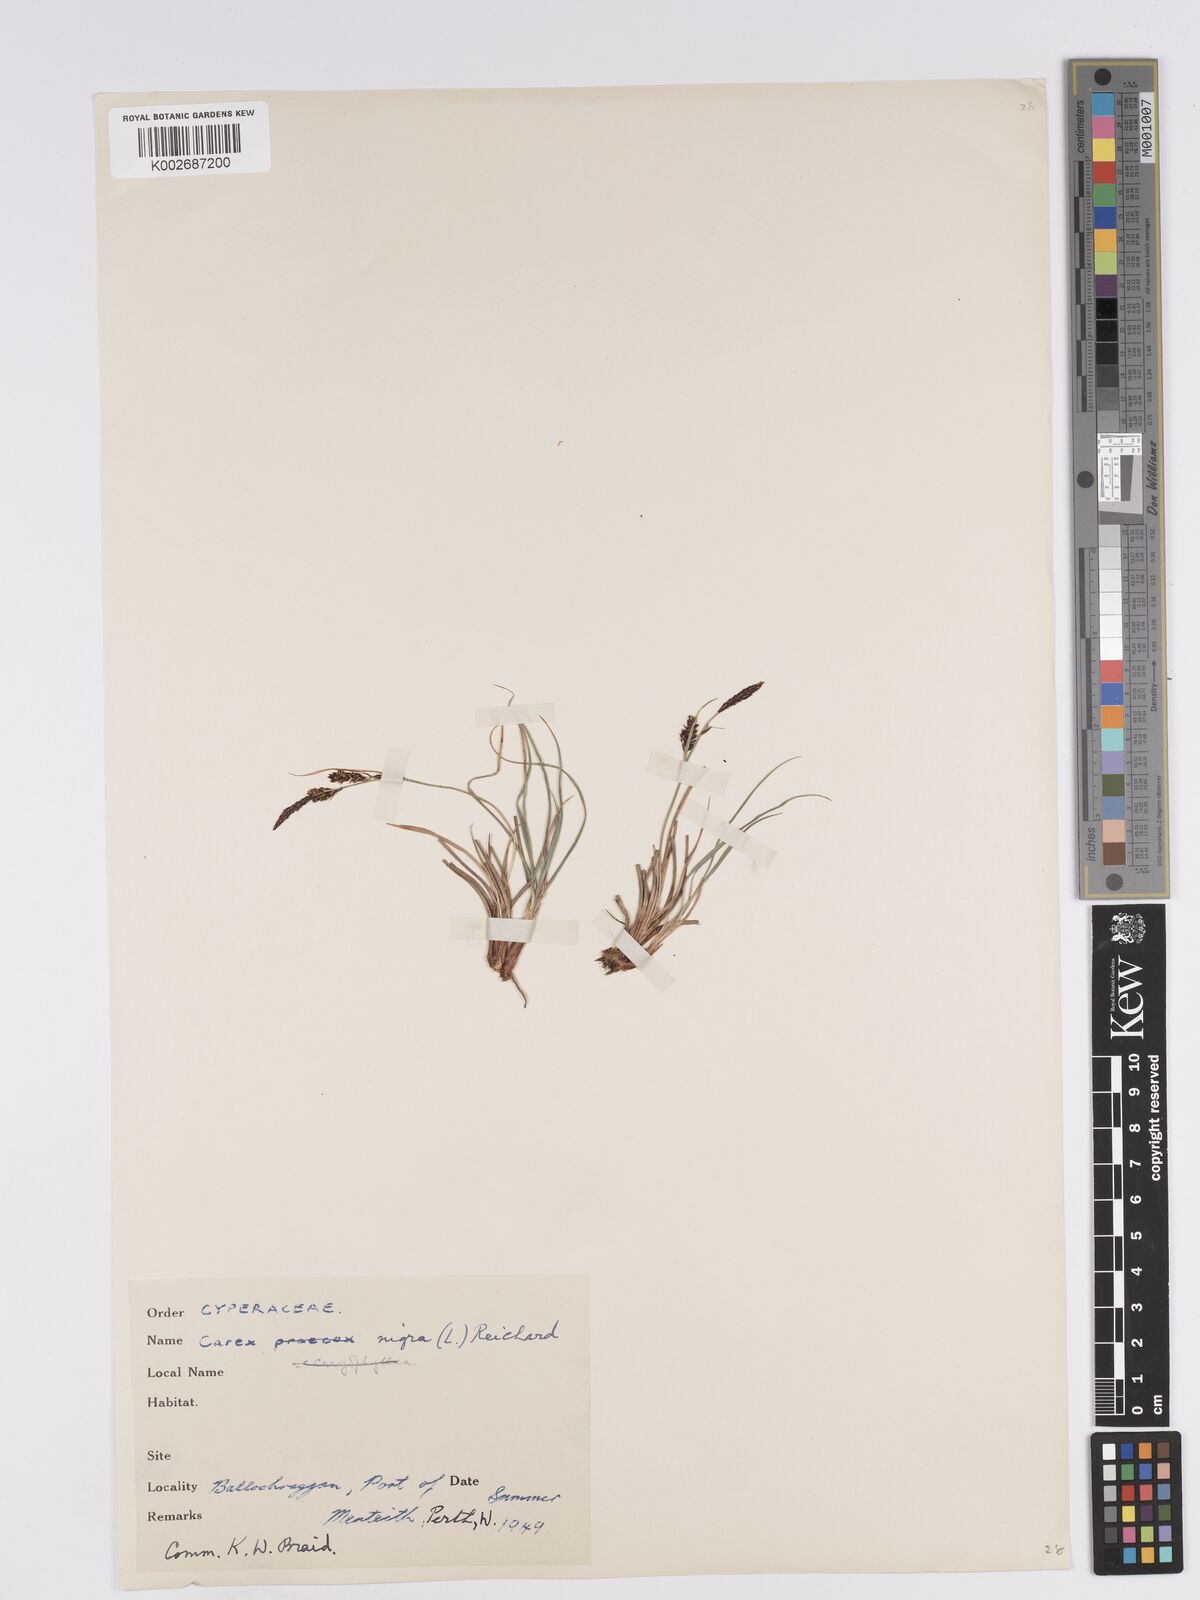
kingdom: Plantae
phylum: Tracheophyta
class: Liliopsida
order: Poales
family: Cyperaceae
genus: Carex
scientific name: Carex nigra
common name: Common sedge
